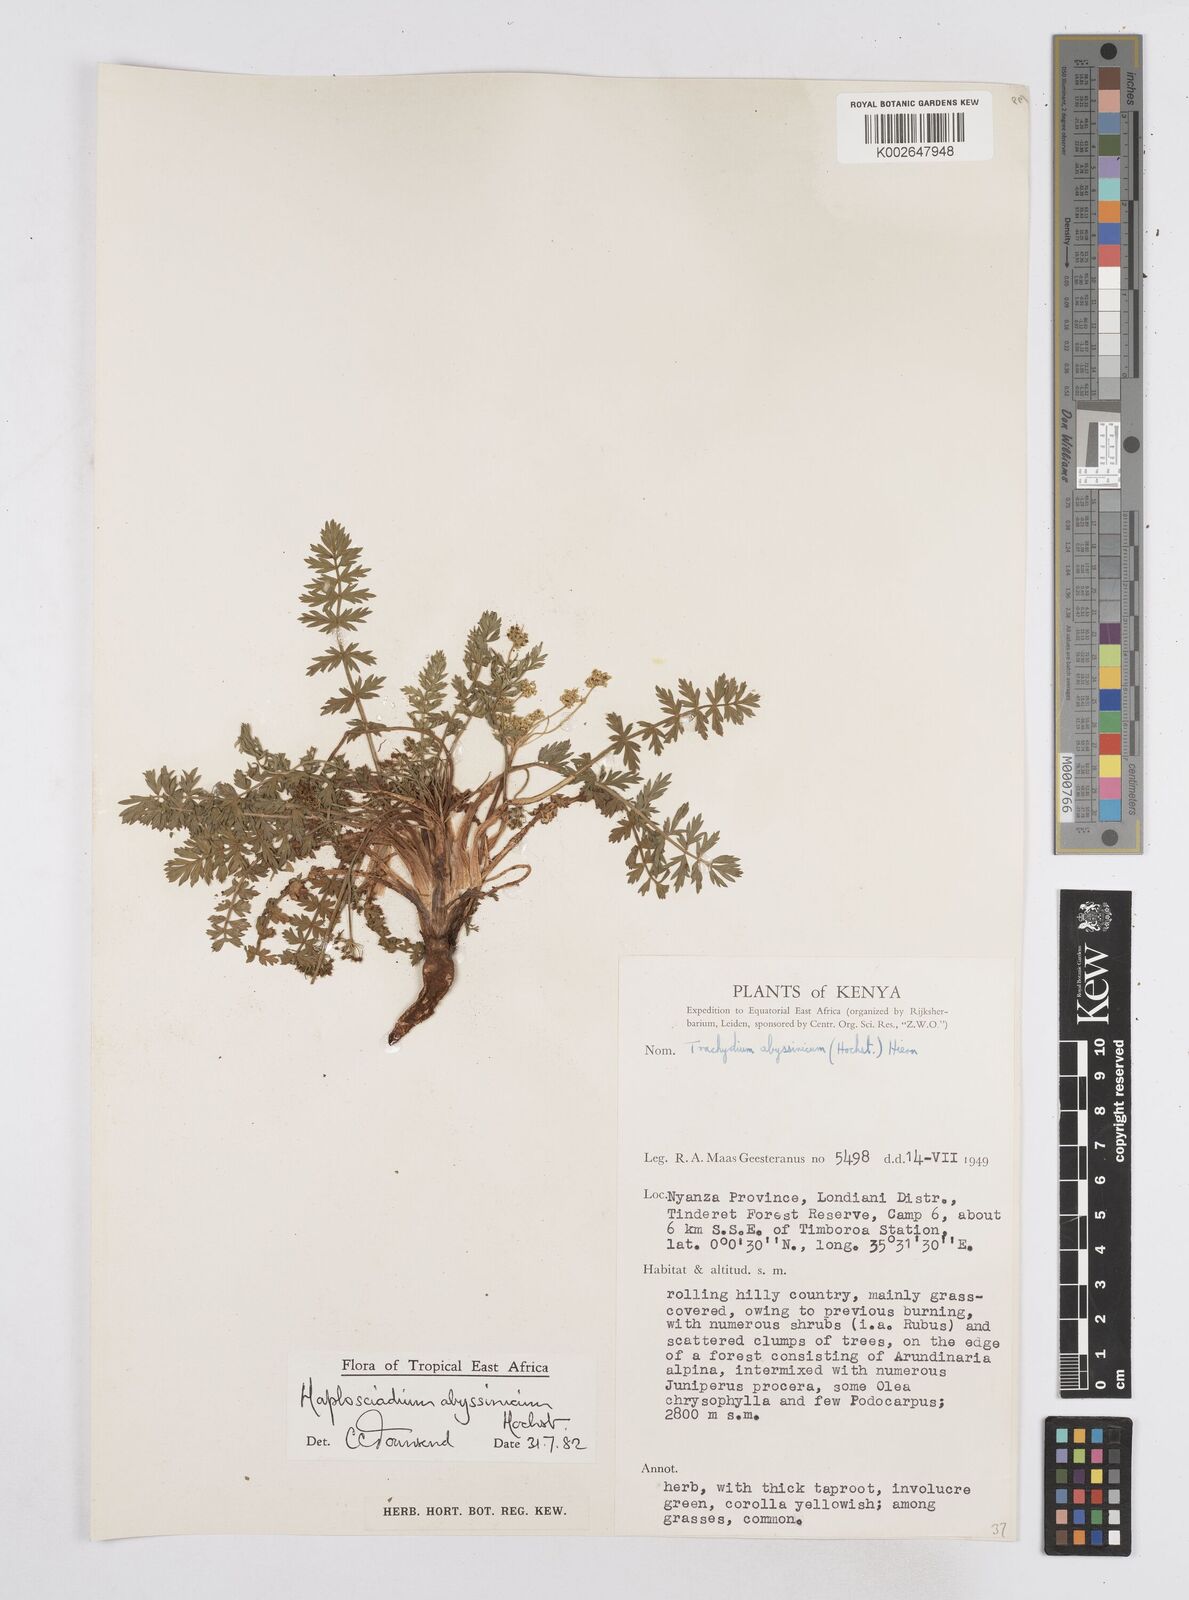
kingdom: Plantae
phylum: Tracheophyta
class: Magnoliopsida
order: Apiales
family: Apiaceae
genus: Haplosciadium
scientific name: Haplosciadium abyssinicum
